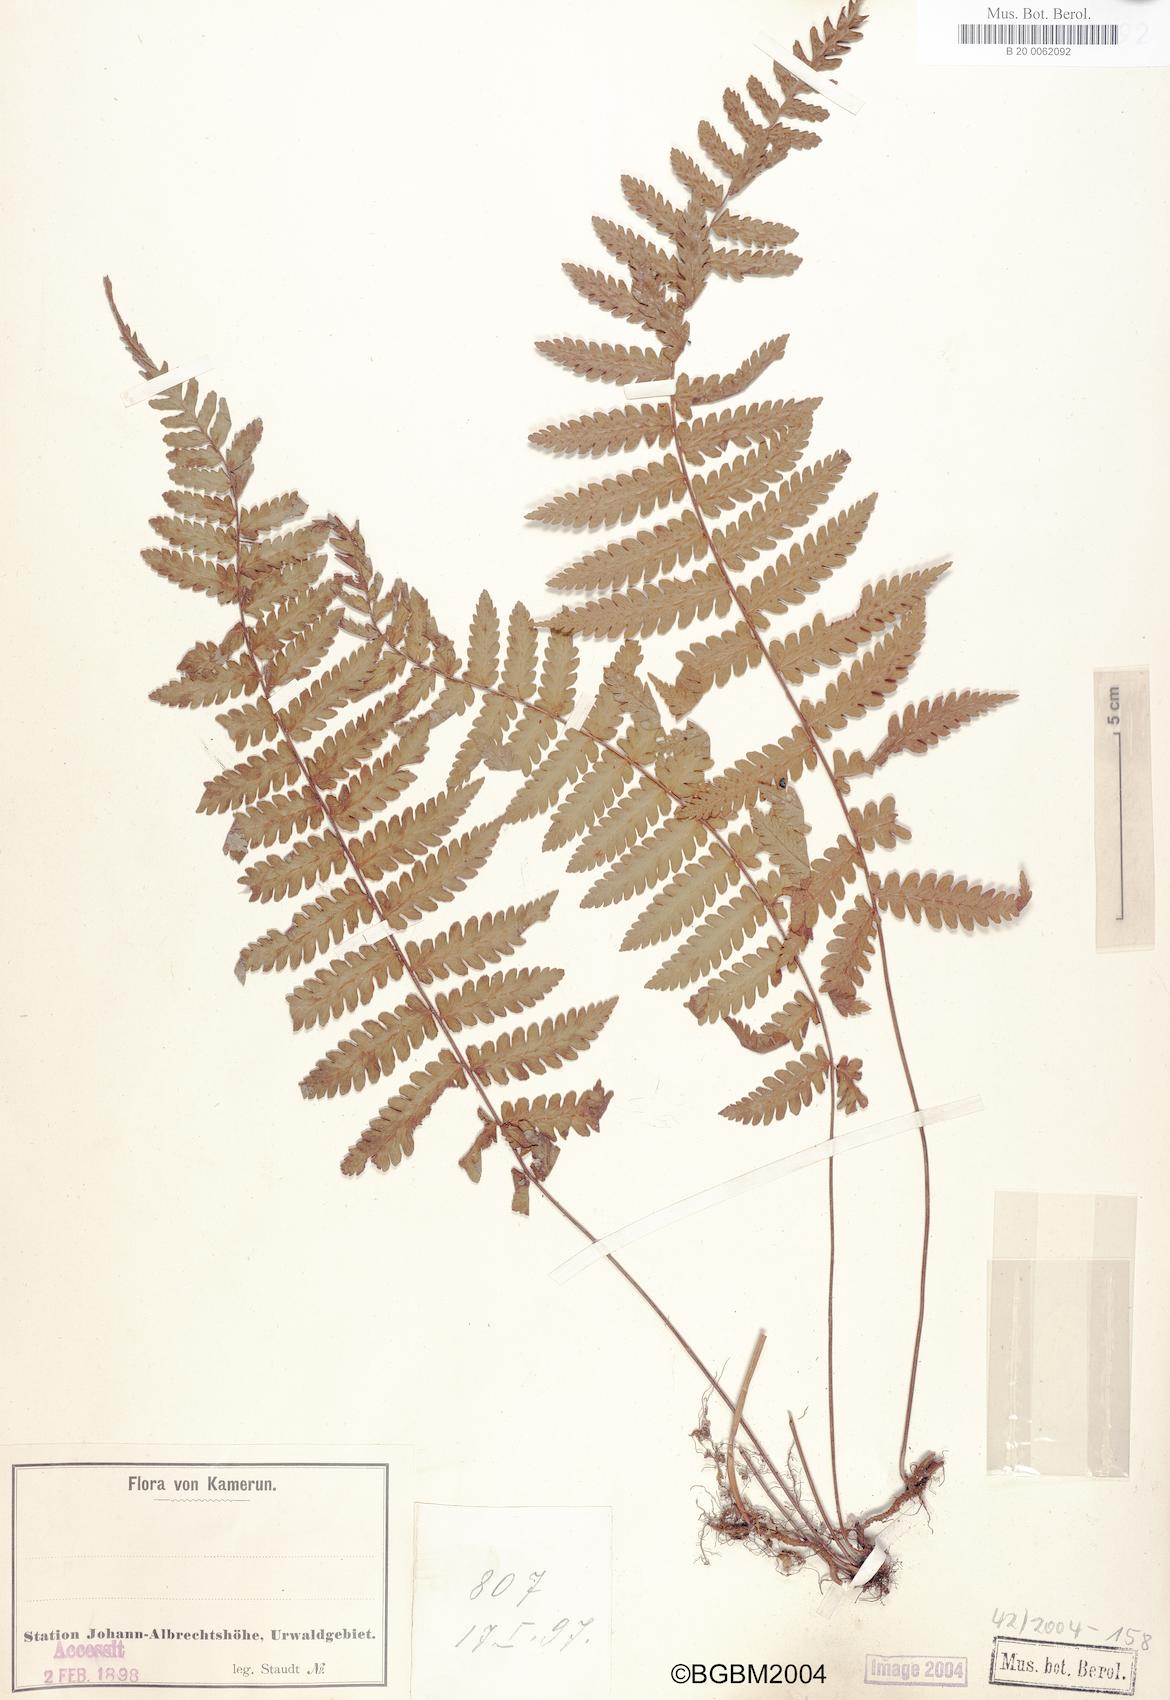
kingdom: Plantae
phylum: Tracheophyta
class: Polypodiopsida
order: Polypodiales
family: Tectariaceae
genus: Arthropteris
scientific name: Arthropteris orientalis
